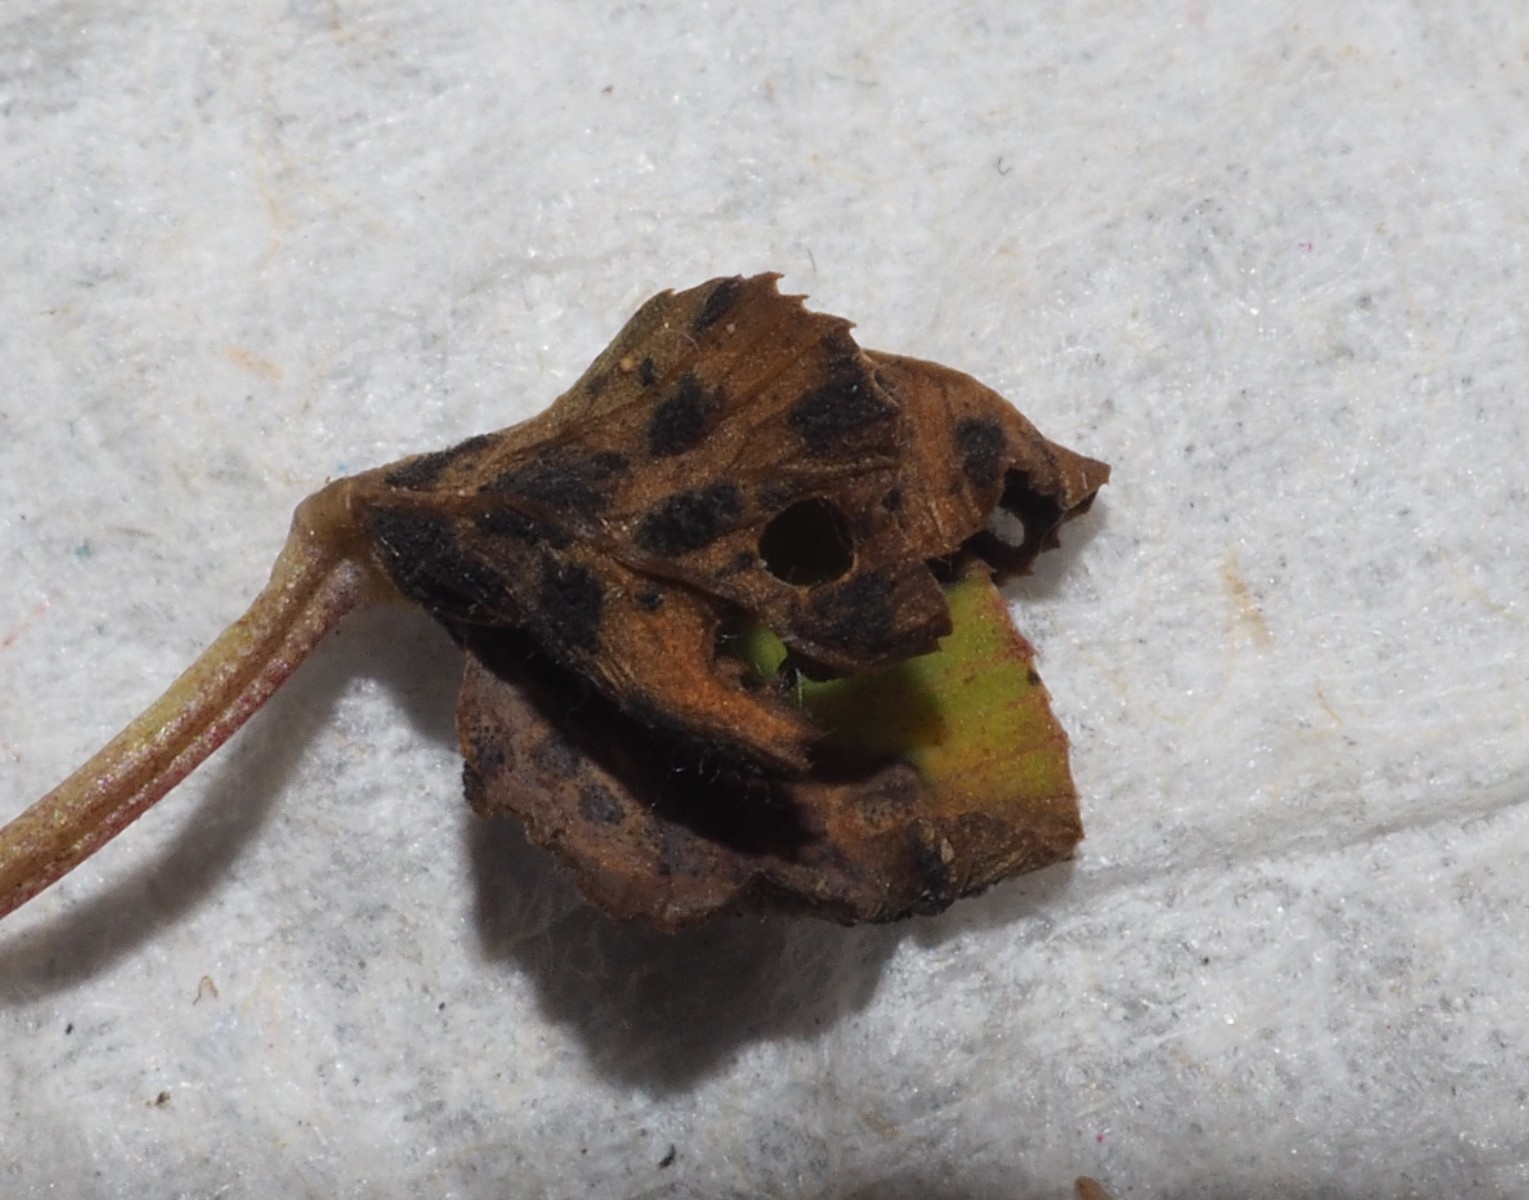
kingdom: Fungi
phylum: Ascomycota
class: Dothideomycetes
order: Mycosphaerellales
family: Mycosphaerellaceae
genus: Polythrincium
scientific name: Polythrincium trifolii
